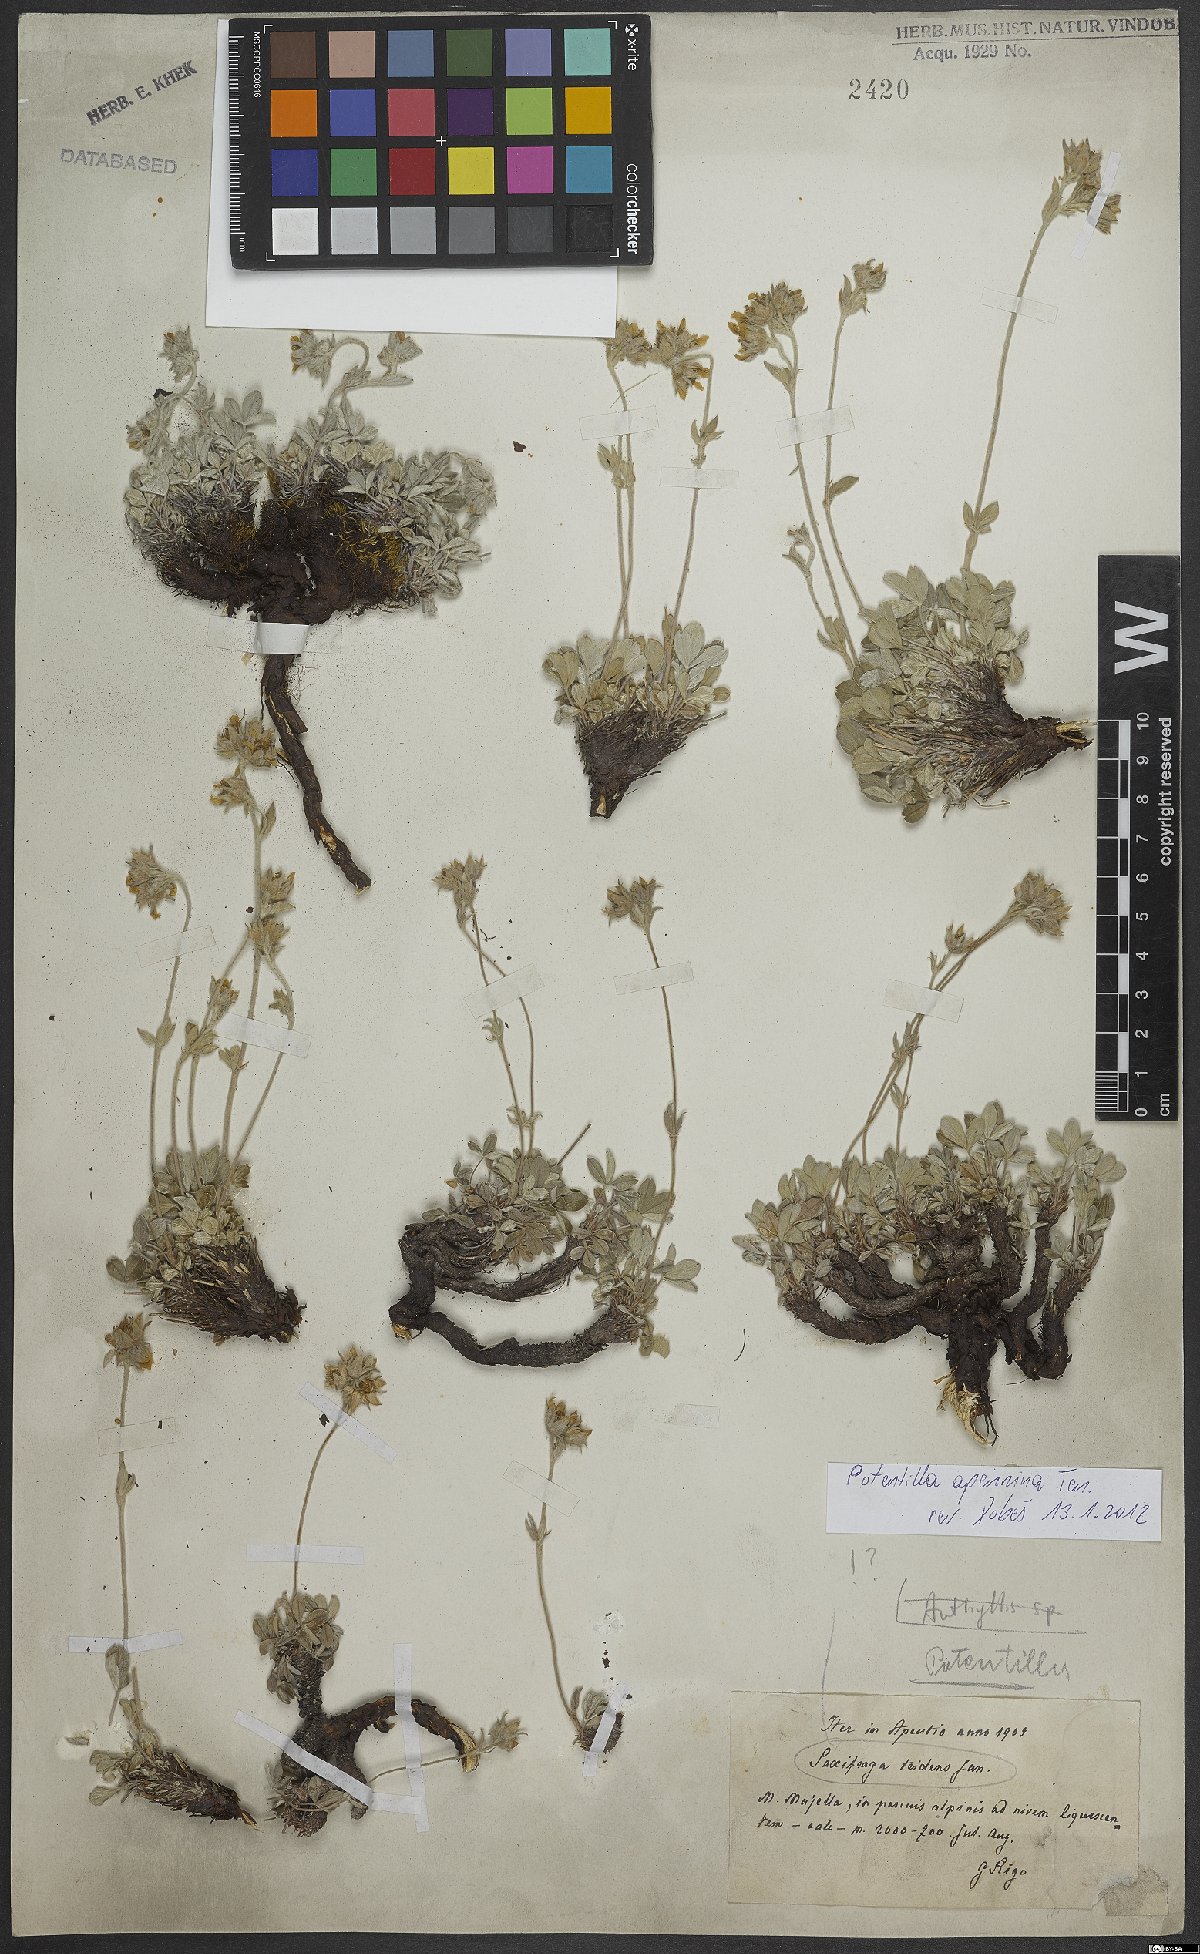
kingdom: Plantae
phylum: Tracheophyta
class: Magnoliopsida
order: Rosales
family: Rosaceae
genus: Potentilla
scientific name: Potentilla apennina
